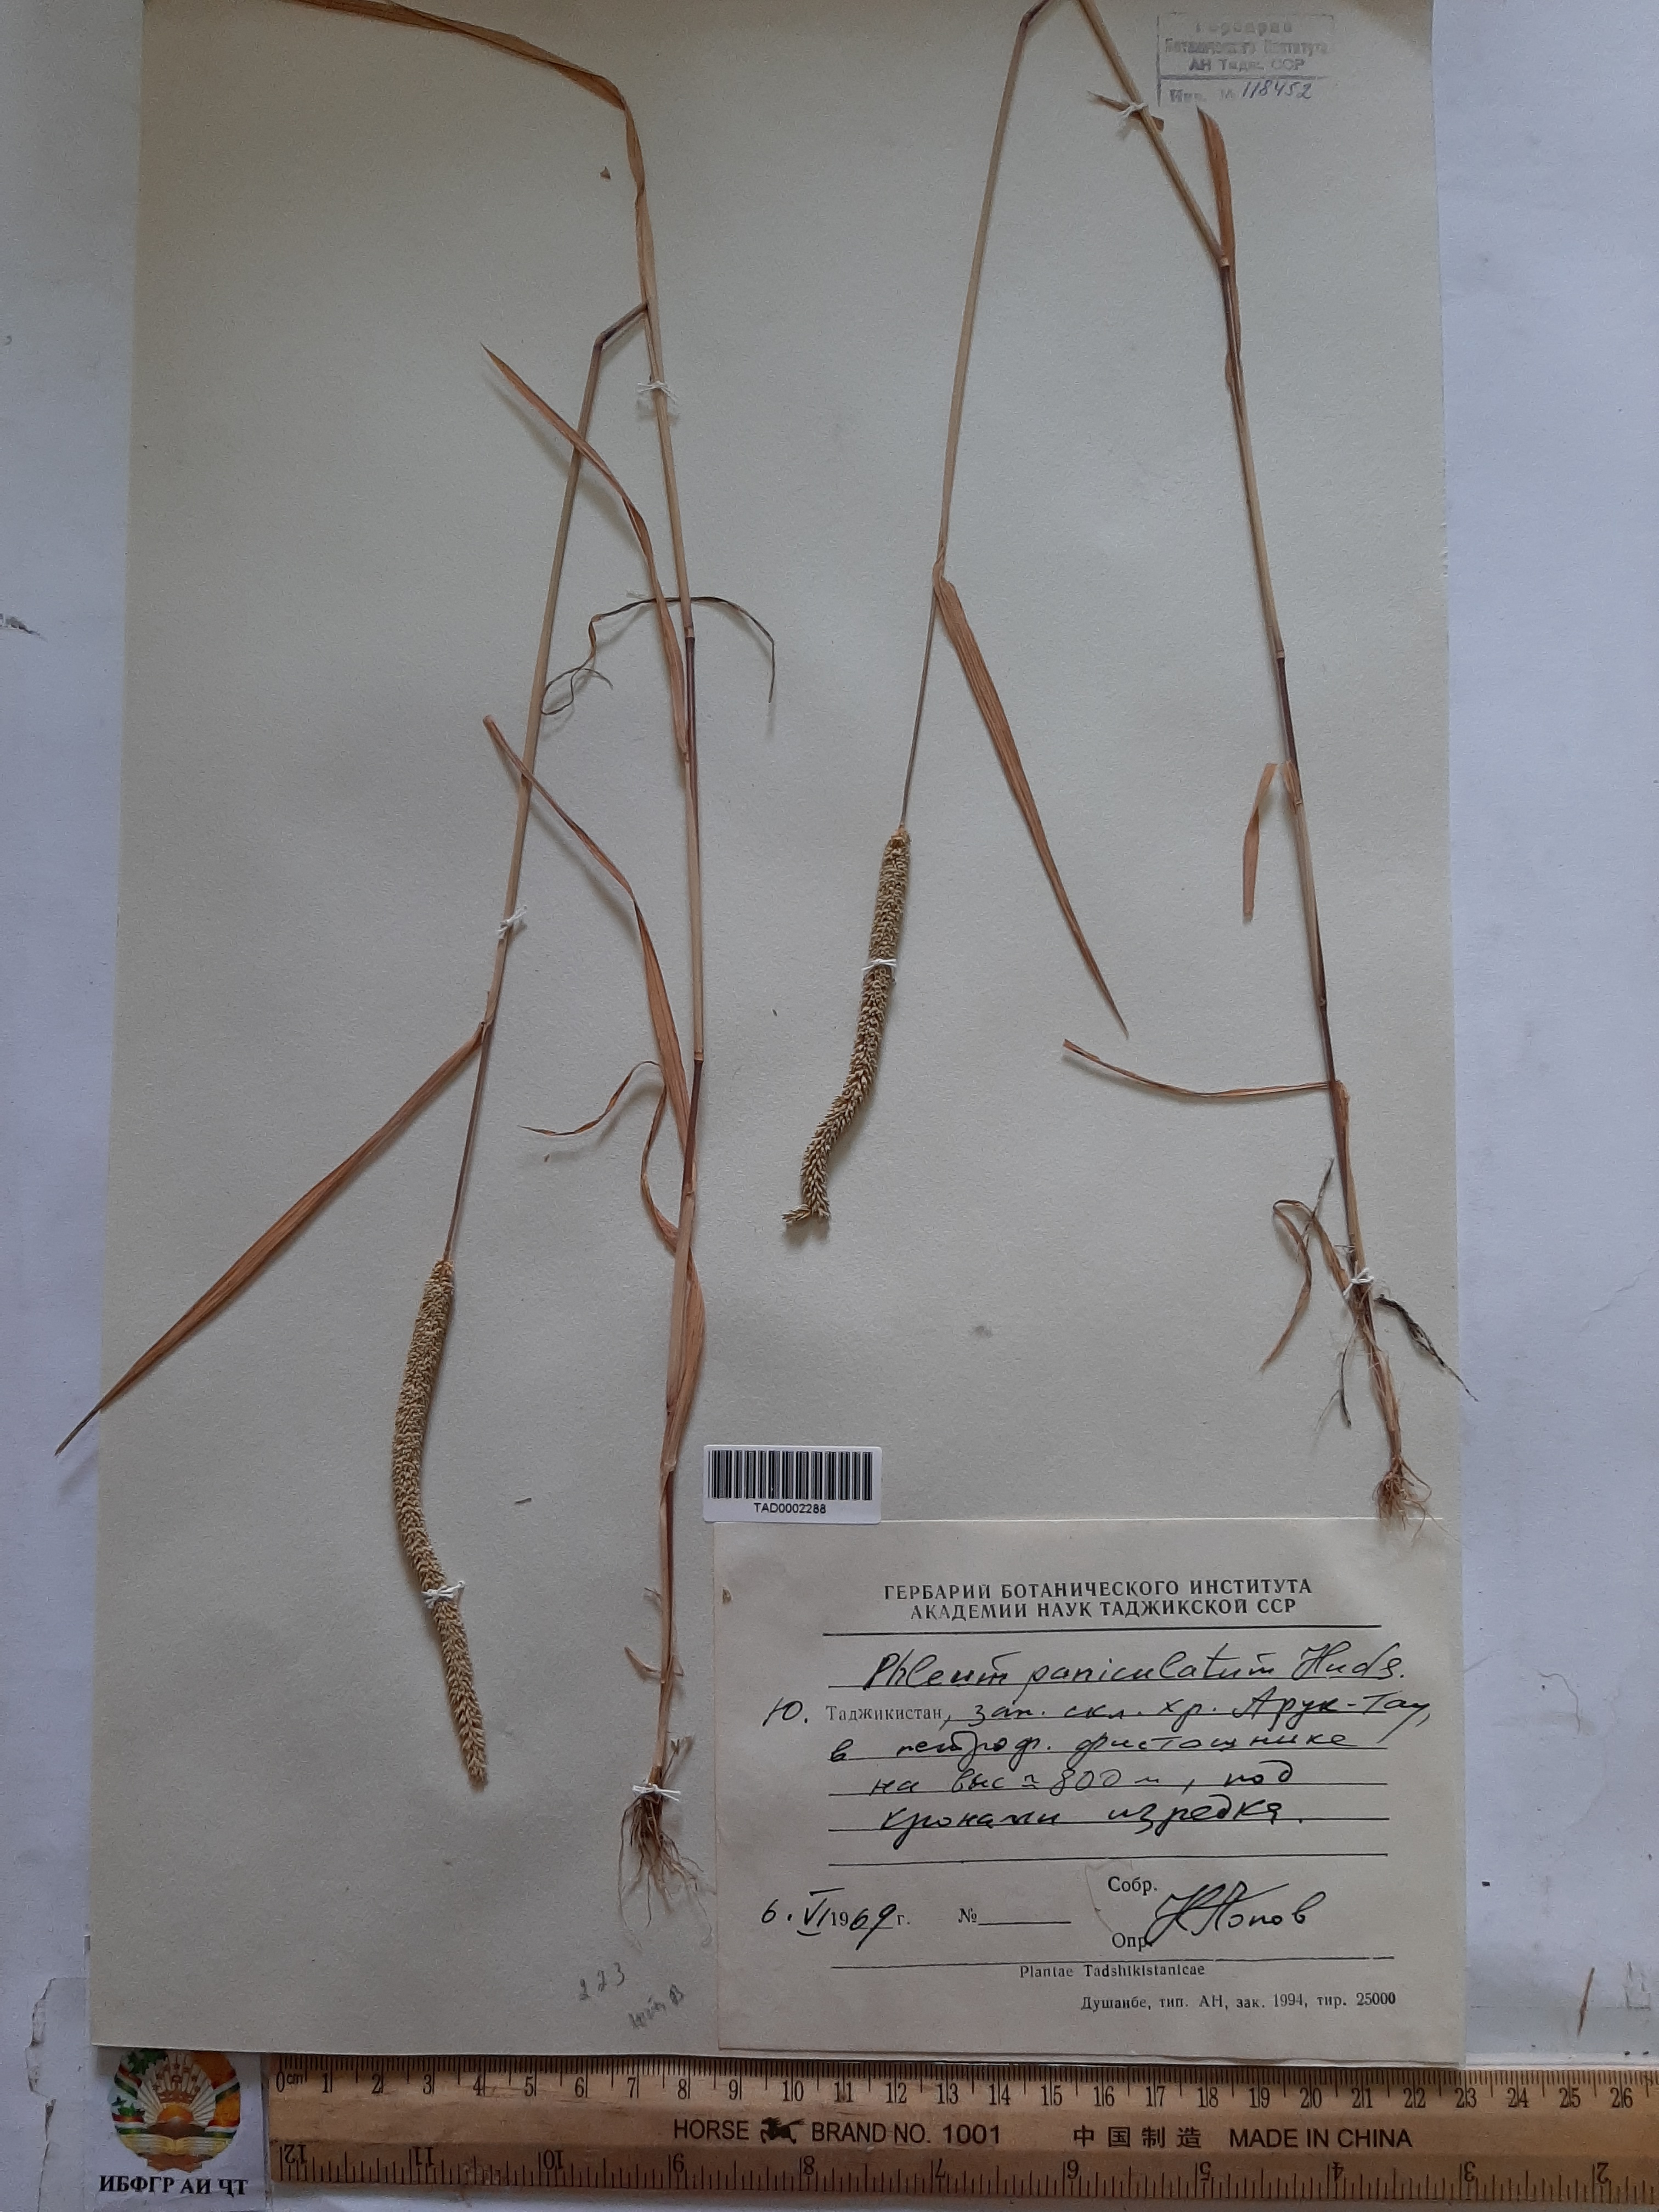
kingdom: Plantae
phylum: Tracheophyta
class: Liliopsida
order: Poales
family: Poaceae
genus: Phleum
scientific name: Phleum paniculatum
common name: British timothy
